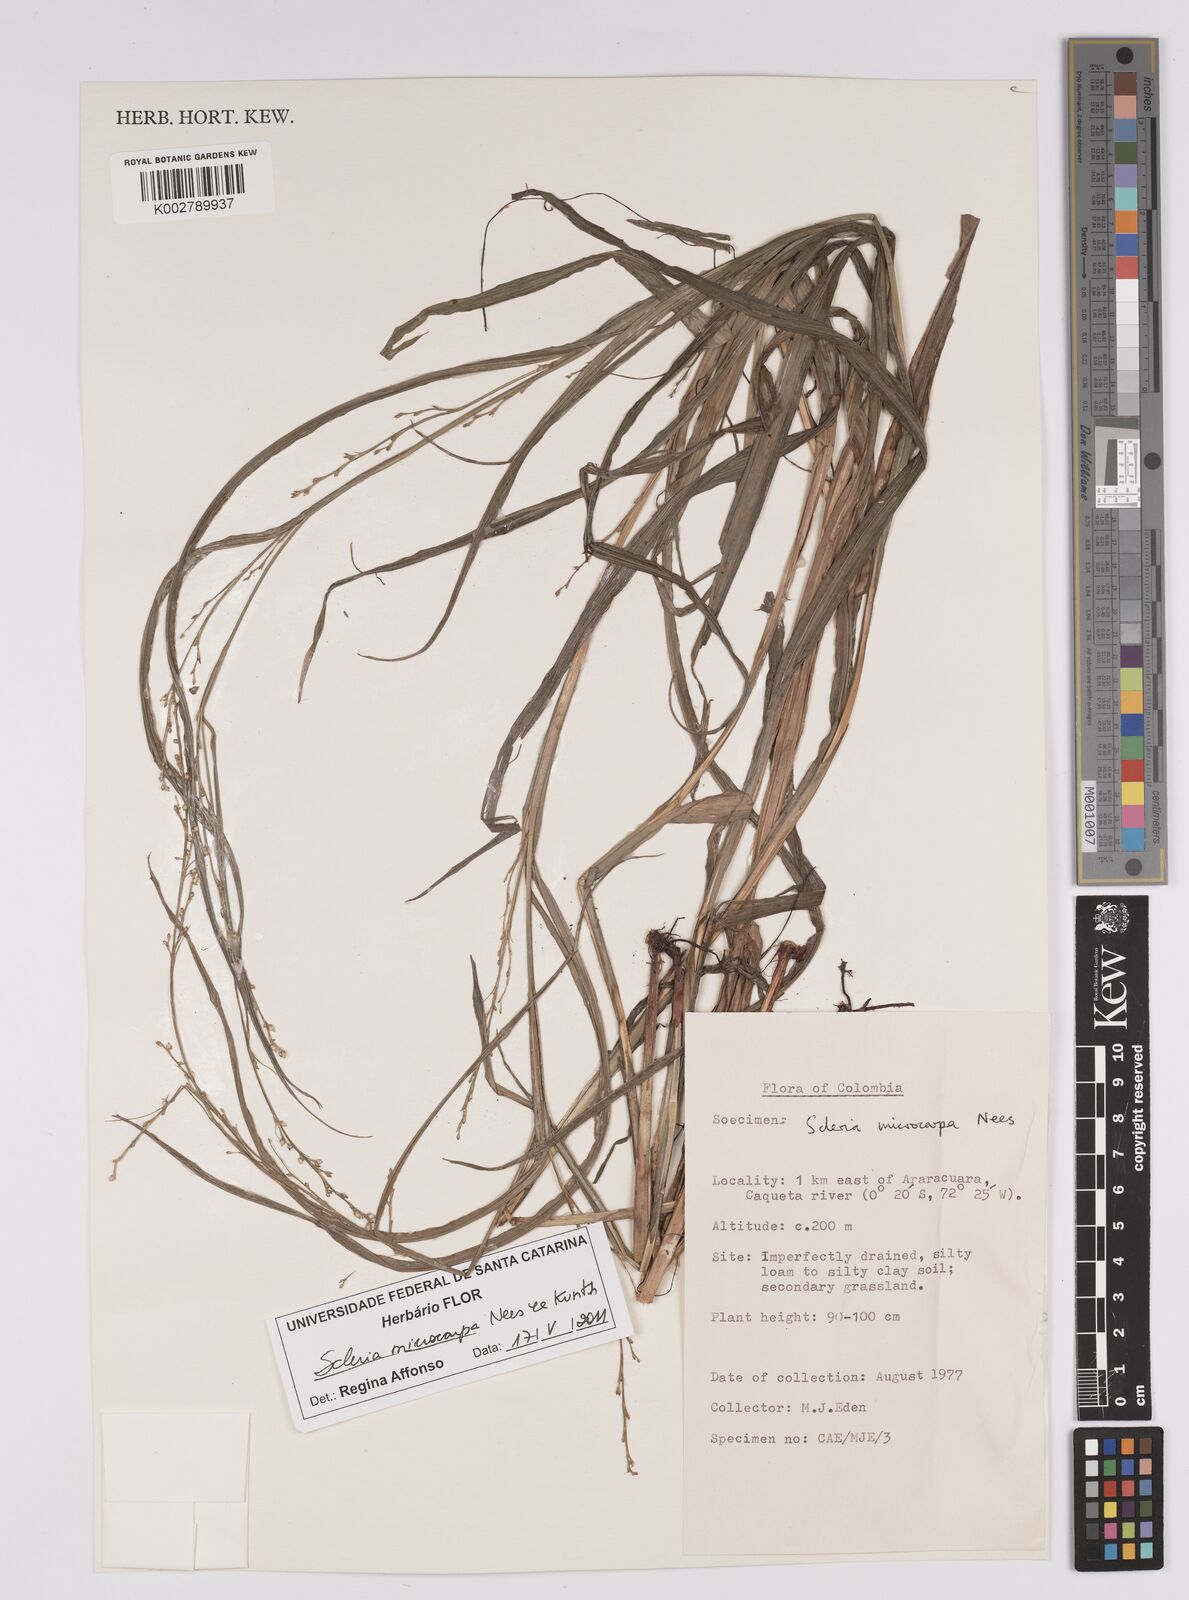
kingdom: Plantae
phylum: Tracheophyta
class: Liliopsida
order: Poales
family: Cyperaceae
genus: Scleria
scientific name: Scleria microcarpa
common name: Tropical nutrush
